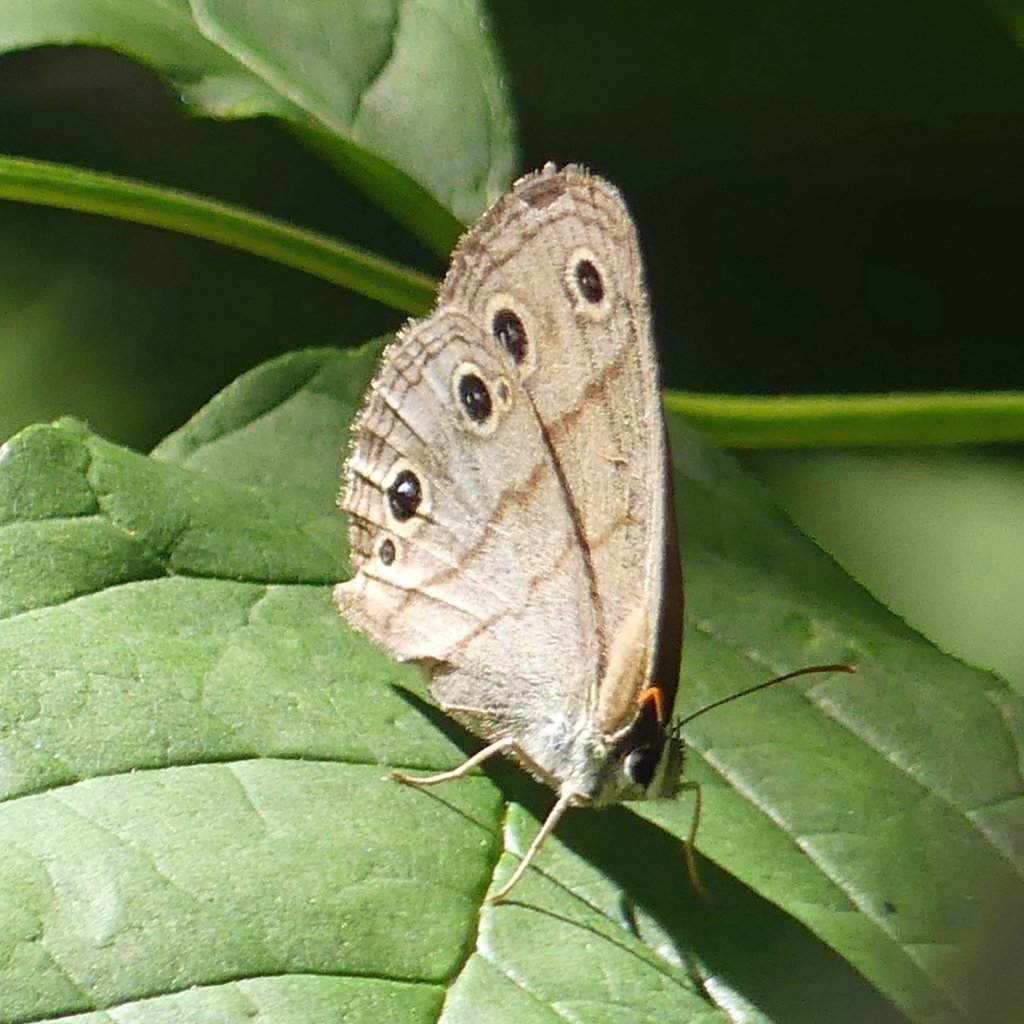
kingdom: Animalia
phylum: Arthropoda
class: Insecta
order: Lepidoptera
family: Nymphalidae
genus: Euptychia
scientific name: Euptychia cymela
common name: Little Wood Satyr
